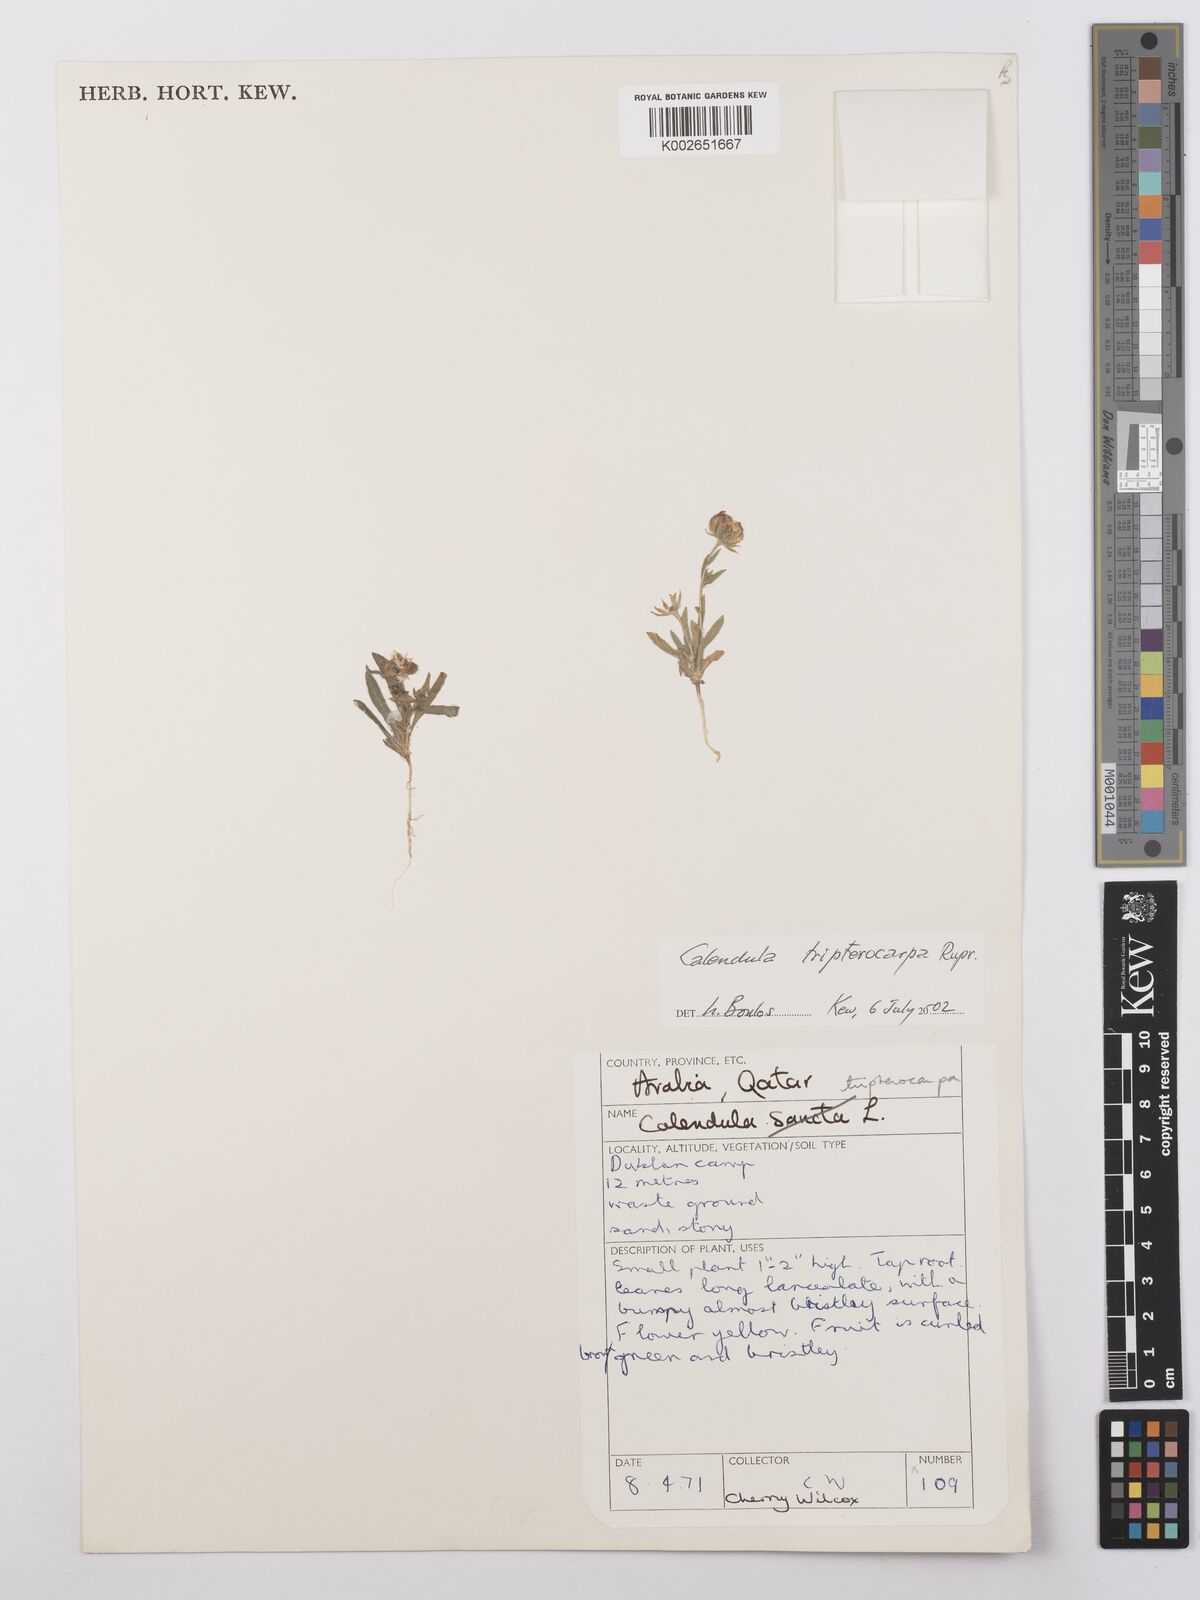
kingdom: Plantae
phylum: Tracheophyta
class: Magnoliopsida
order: Asterales
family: Asteraceae
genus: Calendula
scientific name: Calendula tripterocarpa
